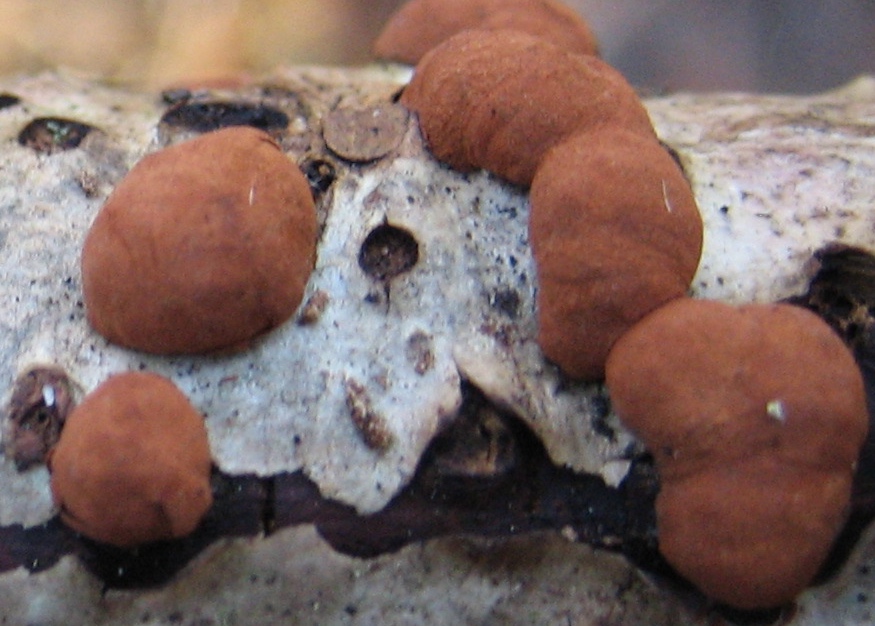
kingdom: Fungi
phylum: Ascomycota
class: Sordariomycetes
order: Xylariales
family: Hypoxylaceae
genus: Hypoxylon
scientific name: Hypoxylon howeanum
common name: halvkugleformet kulbær
